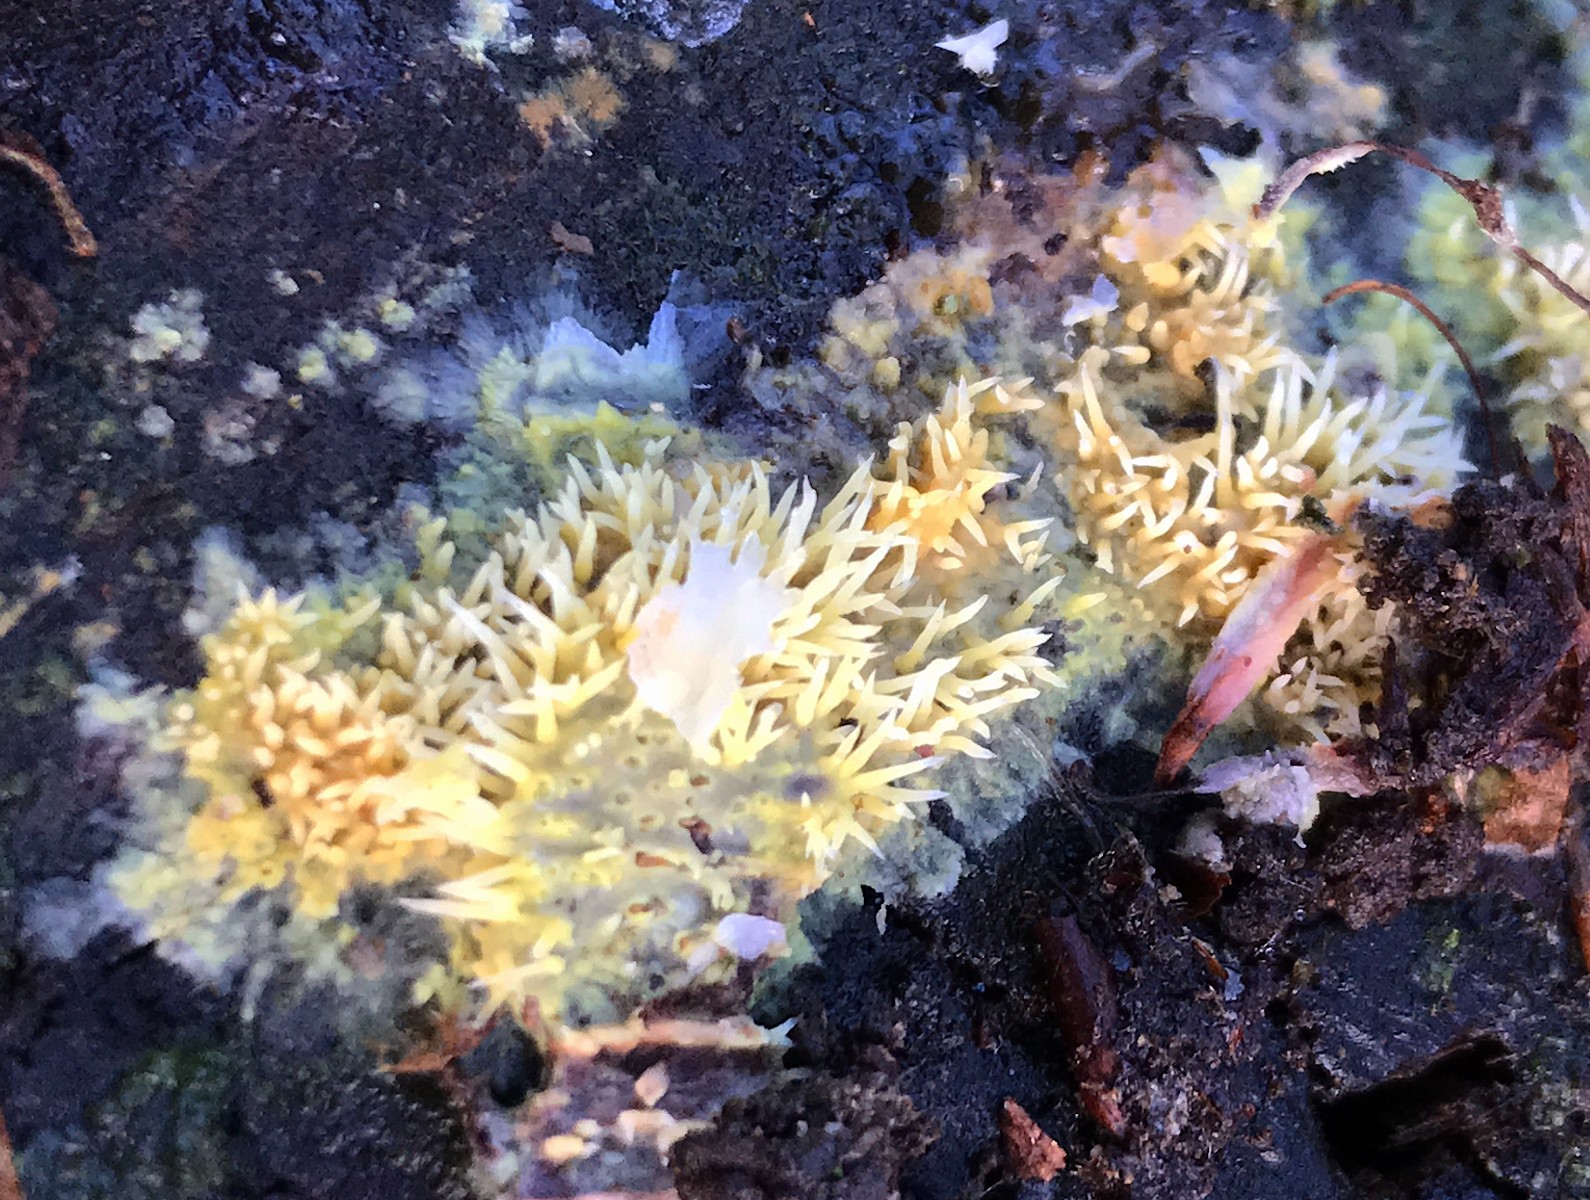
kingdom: Fungi
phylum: Basidiomycota
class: Agaricomycetes
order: Polyporales
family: Meruliaceae
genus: Mycoacia
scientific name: Mycoacia uda
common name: citrongul vokspig
